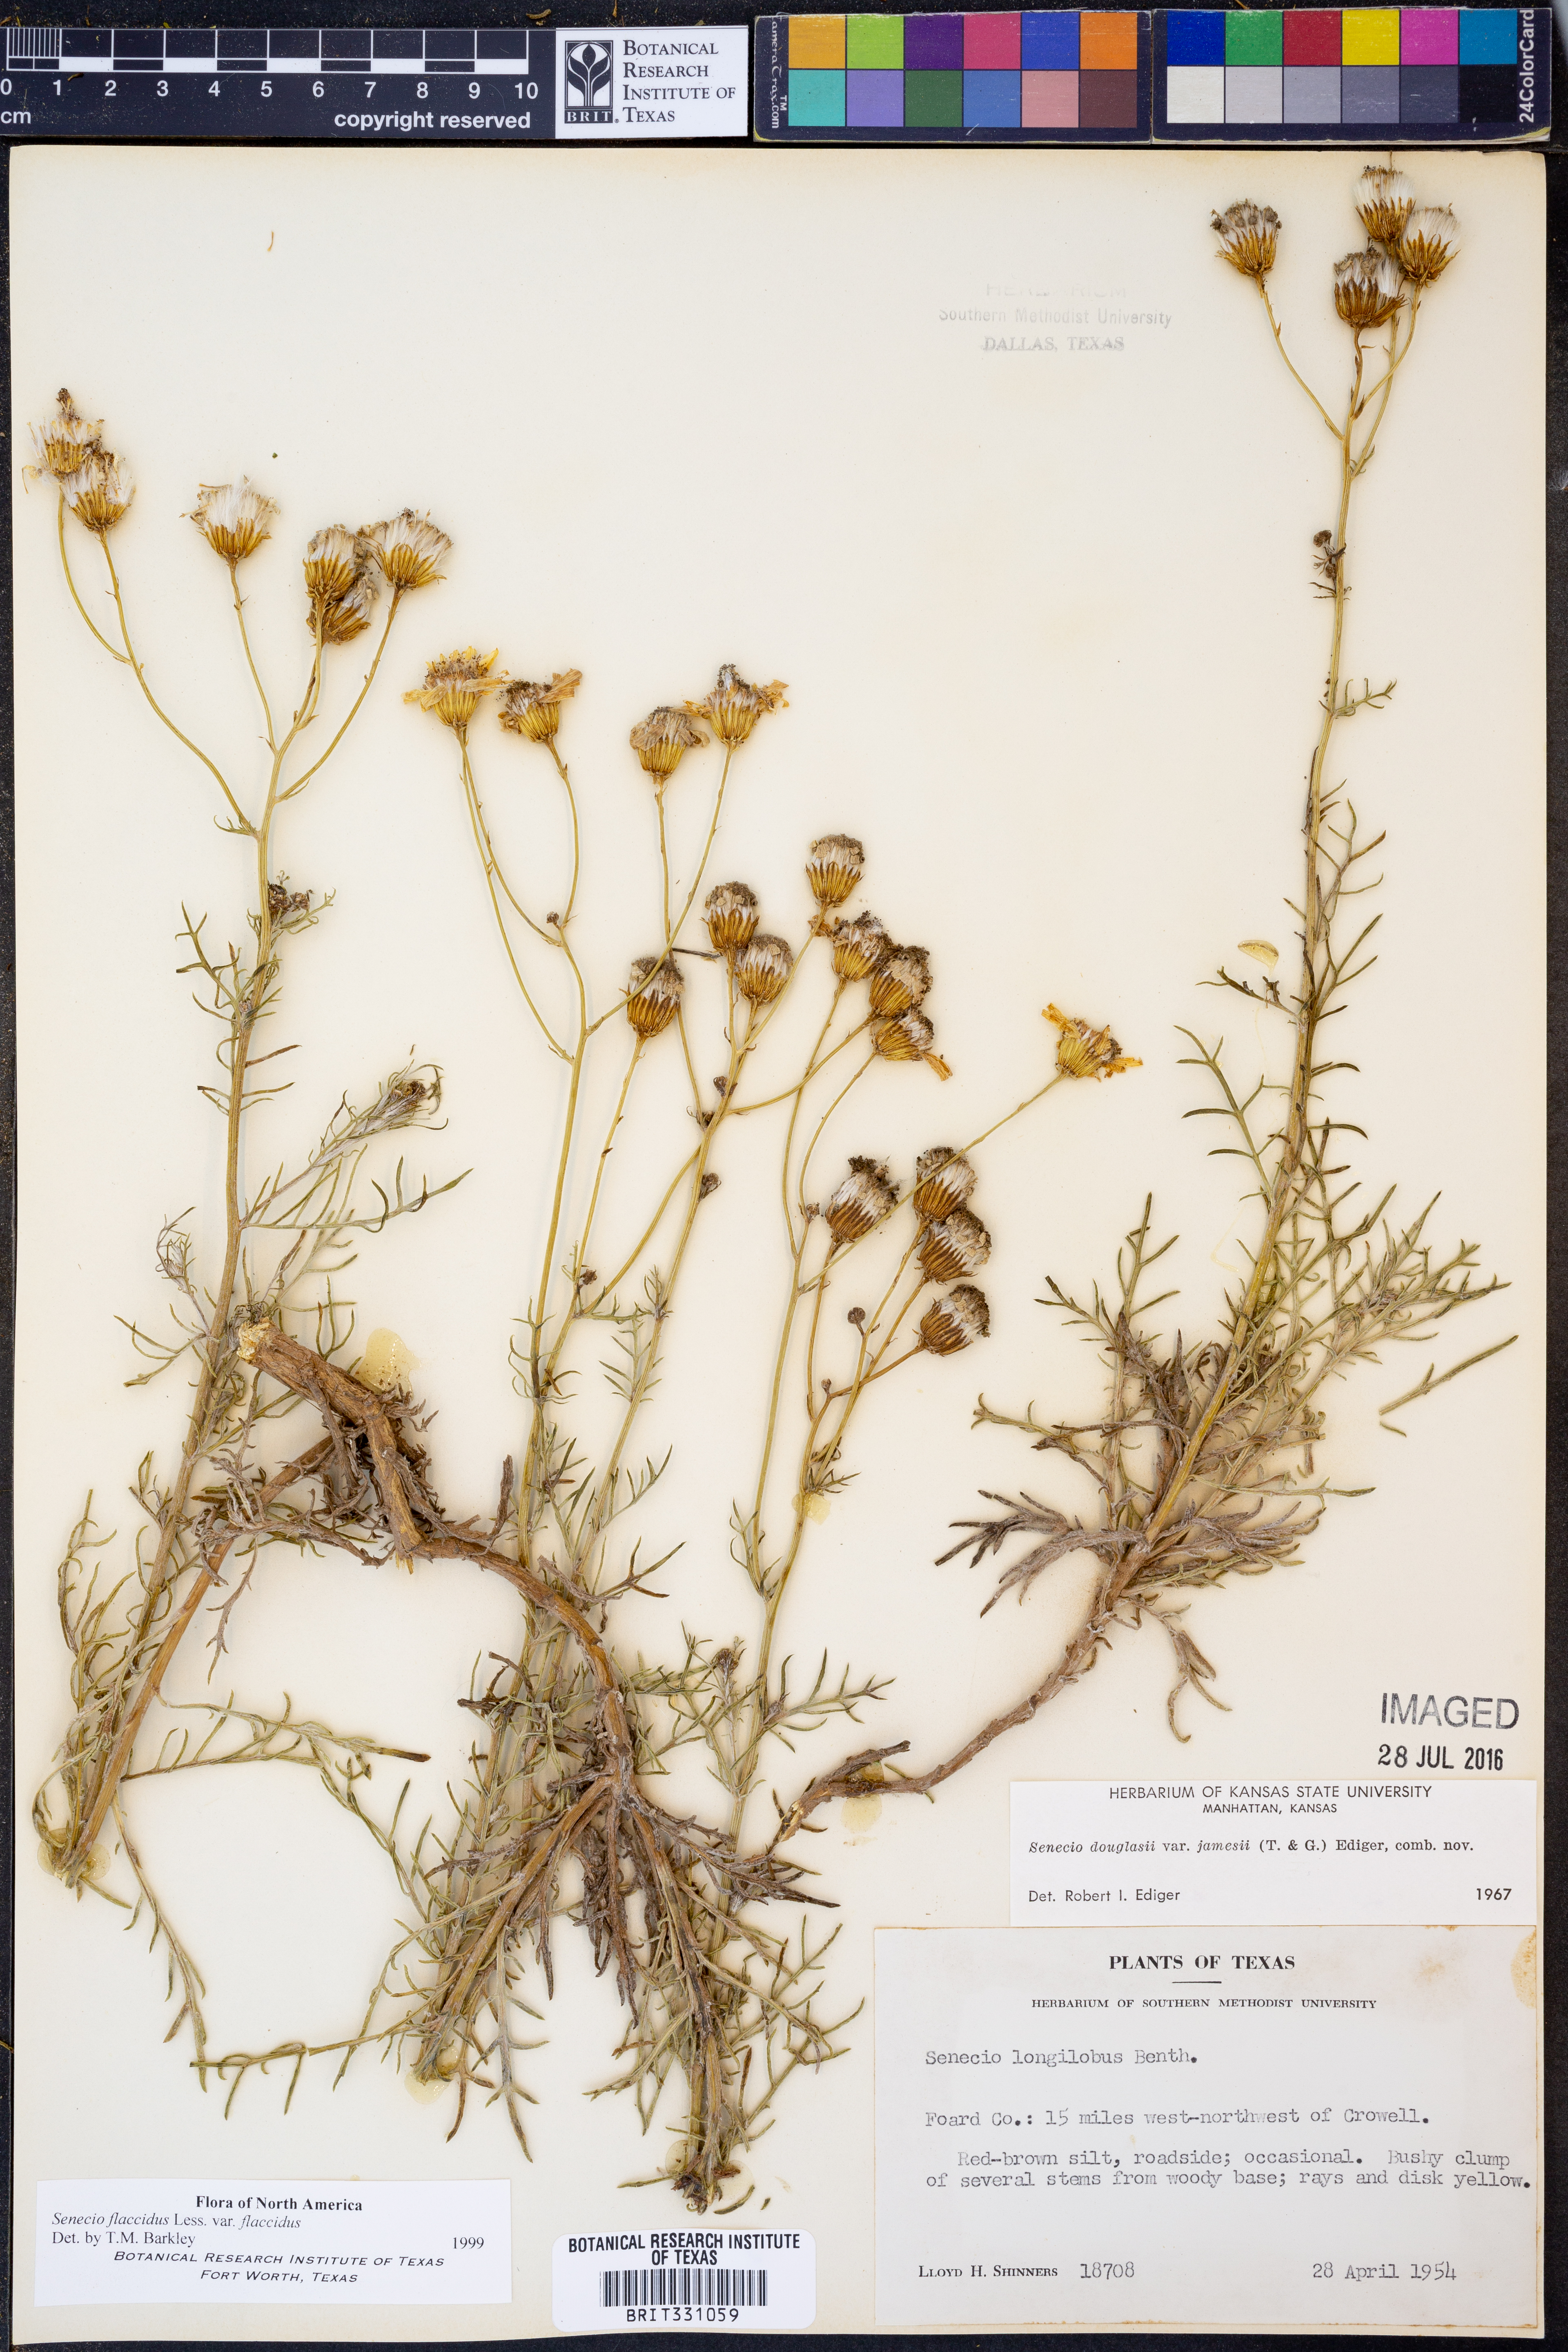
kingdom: Plantae
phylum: Tracheophyta
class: Magnoliopsida
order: Asterales
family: Asteraceae
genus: Senecio
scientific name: Senecio flaccidus
